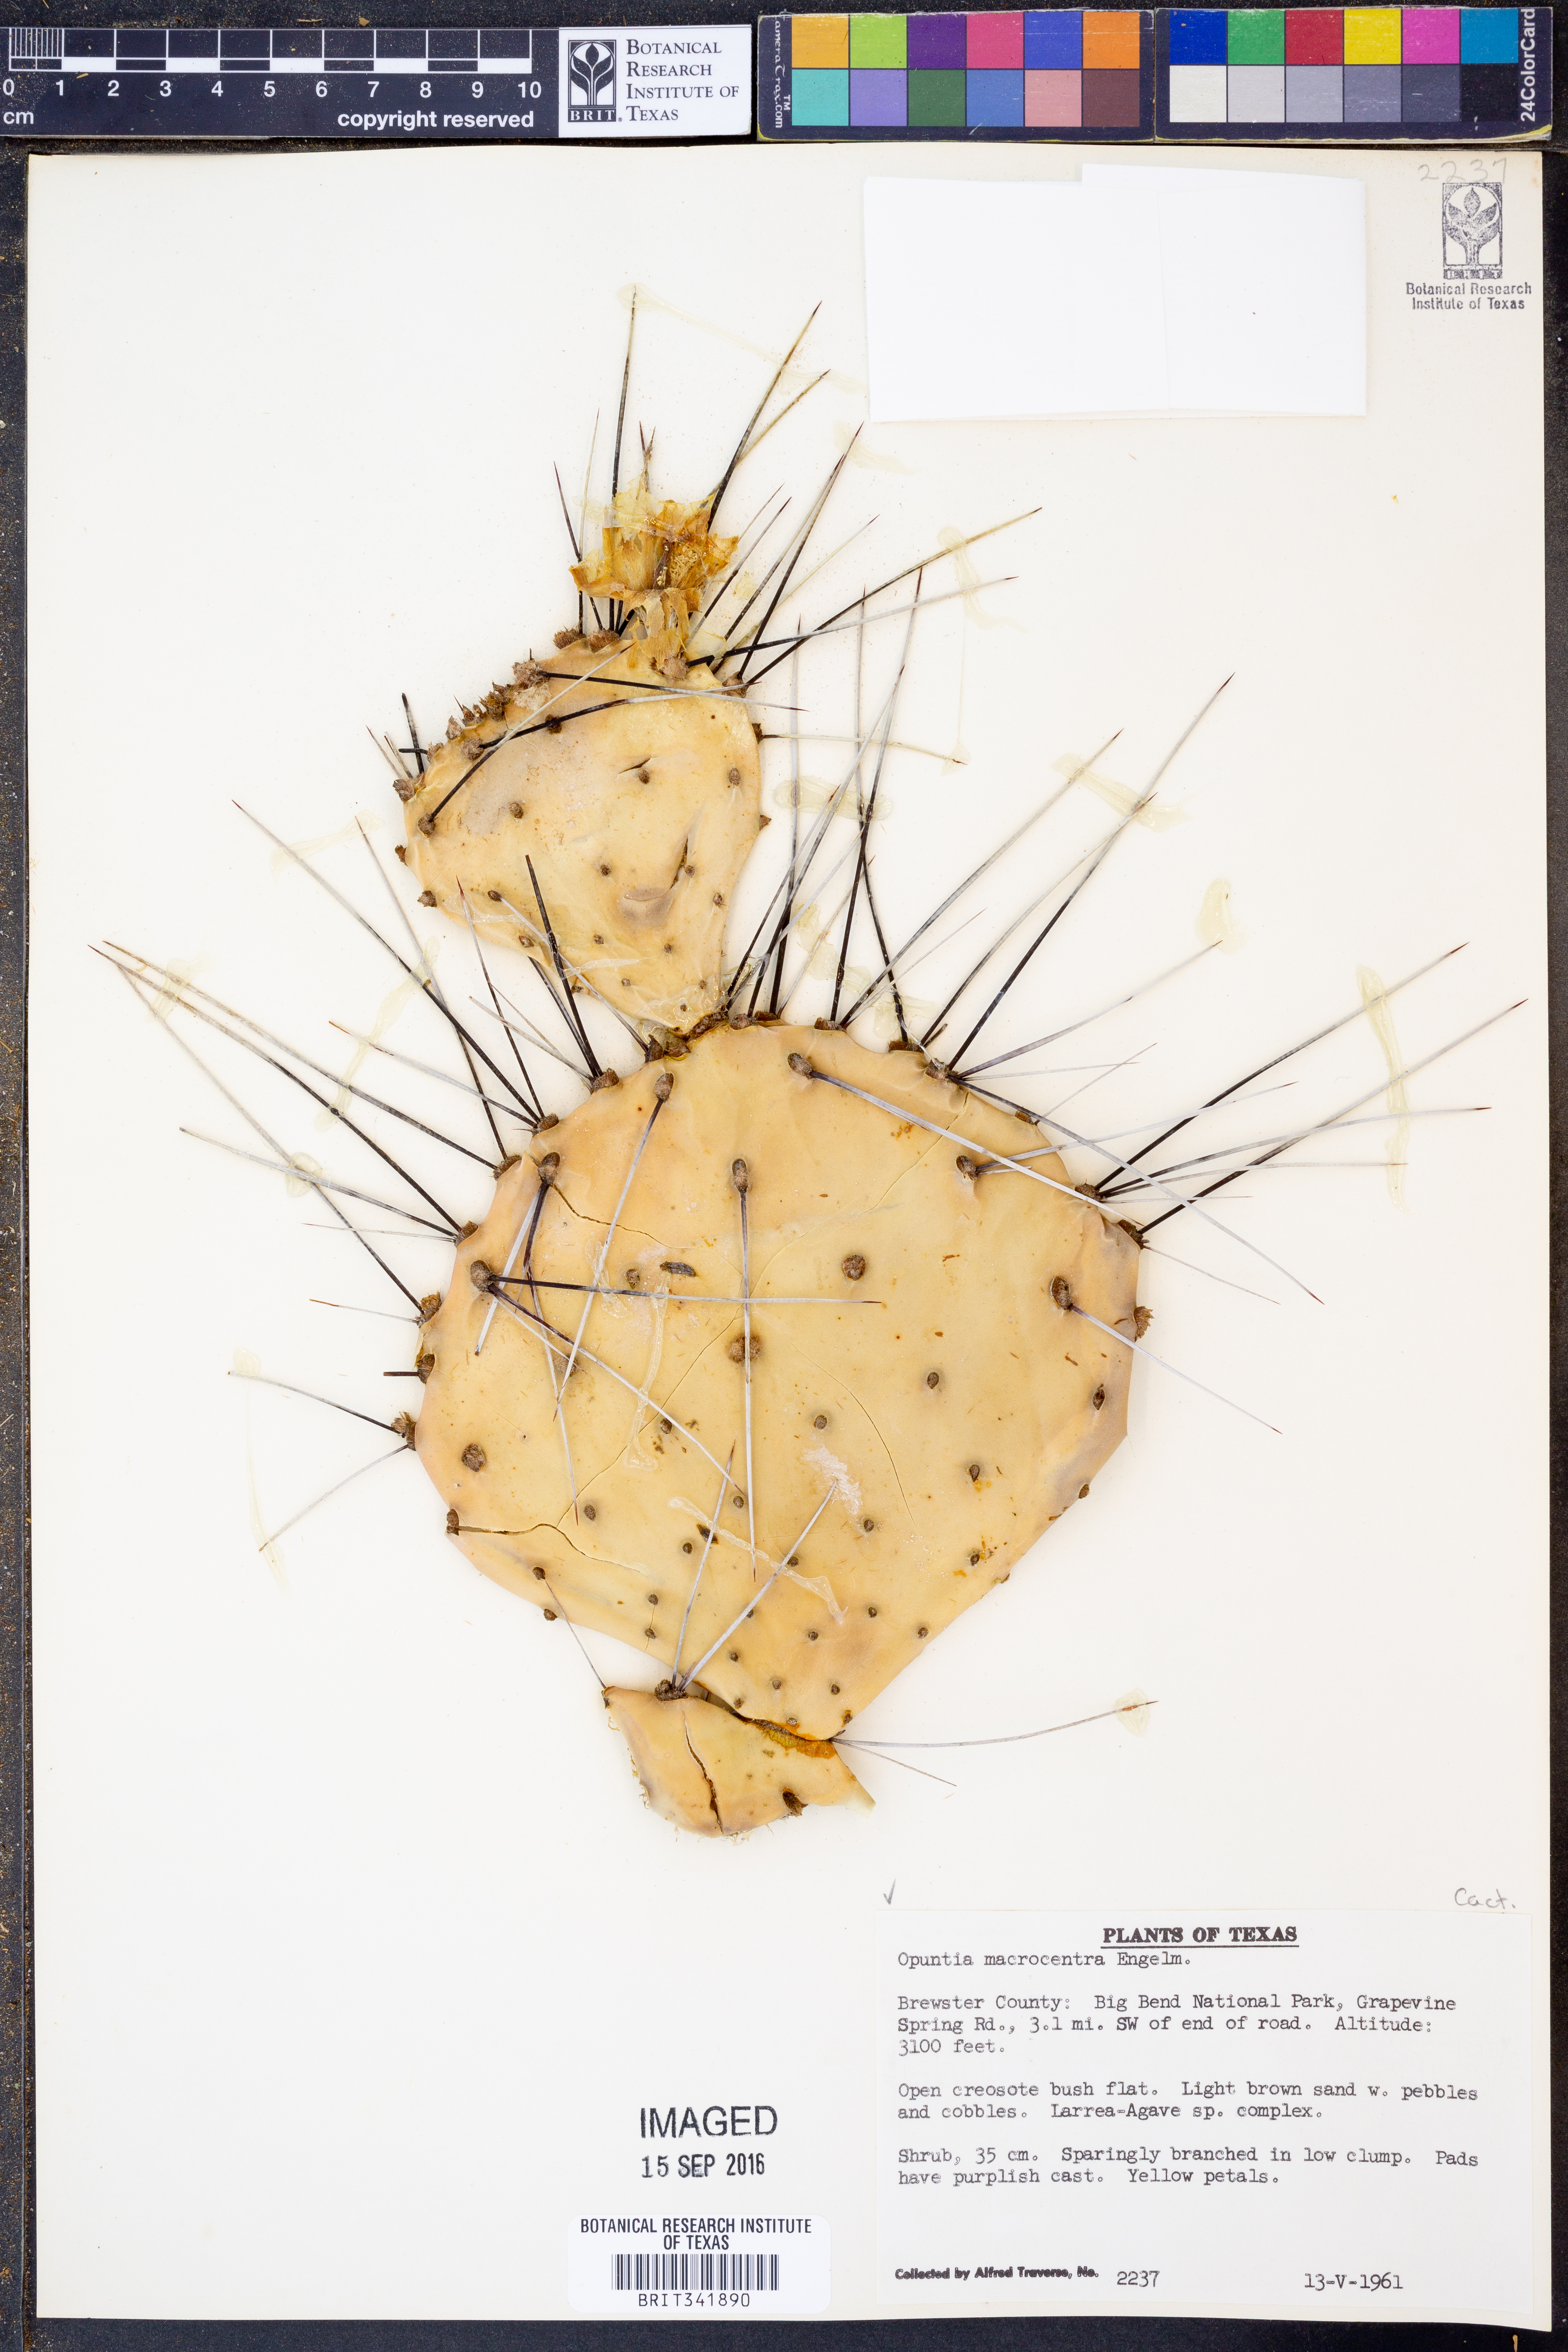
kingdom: Plantae
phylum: Tracheophyta
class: Magnoliopsida
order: Caryophyllales
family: Cactaceae
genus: Opuntia
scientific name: Opuntia macrocentra
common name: Purple prickly-pear
